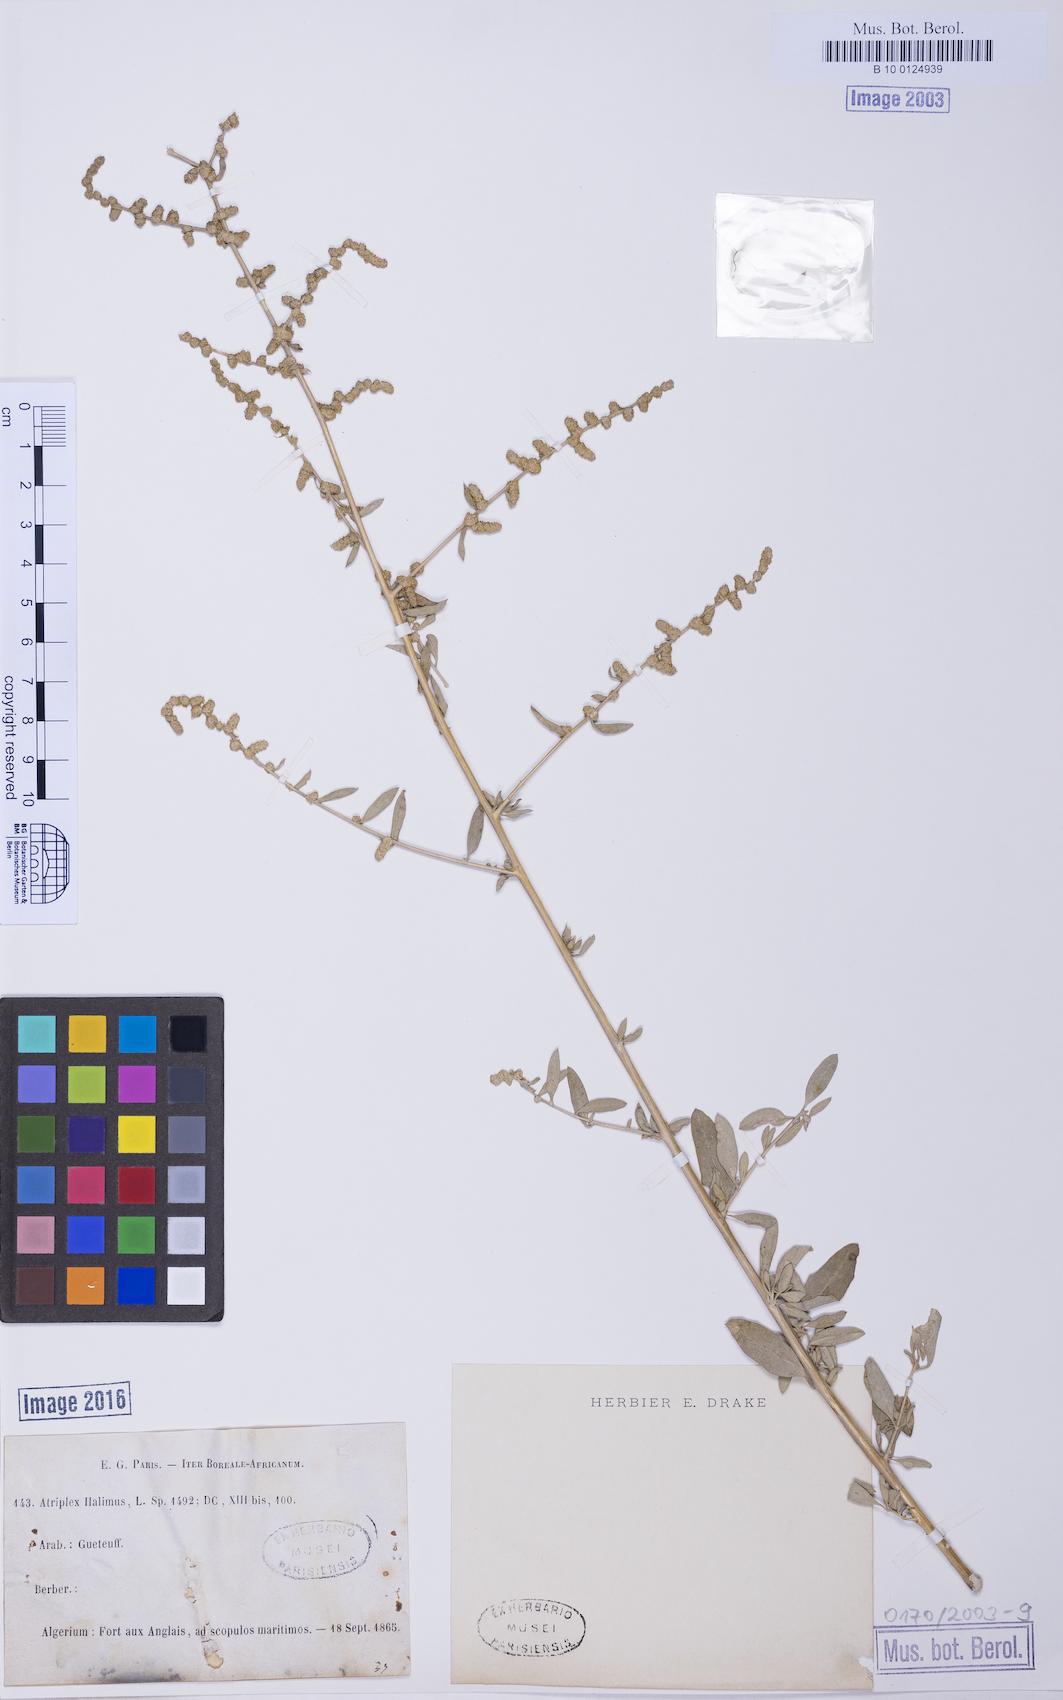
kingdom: Plantae
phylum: Tracheophyta
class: Magnoliopsida
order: Caryophyllales
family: Amaranthaceae
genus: Atriplex
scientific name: Atriplex halimus
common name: Shrubby orache
